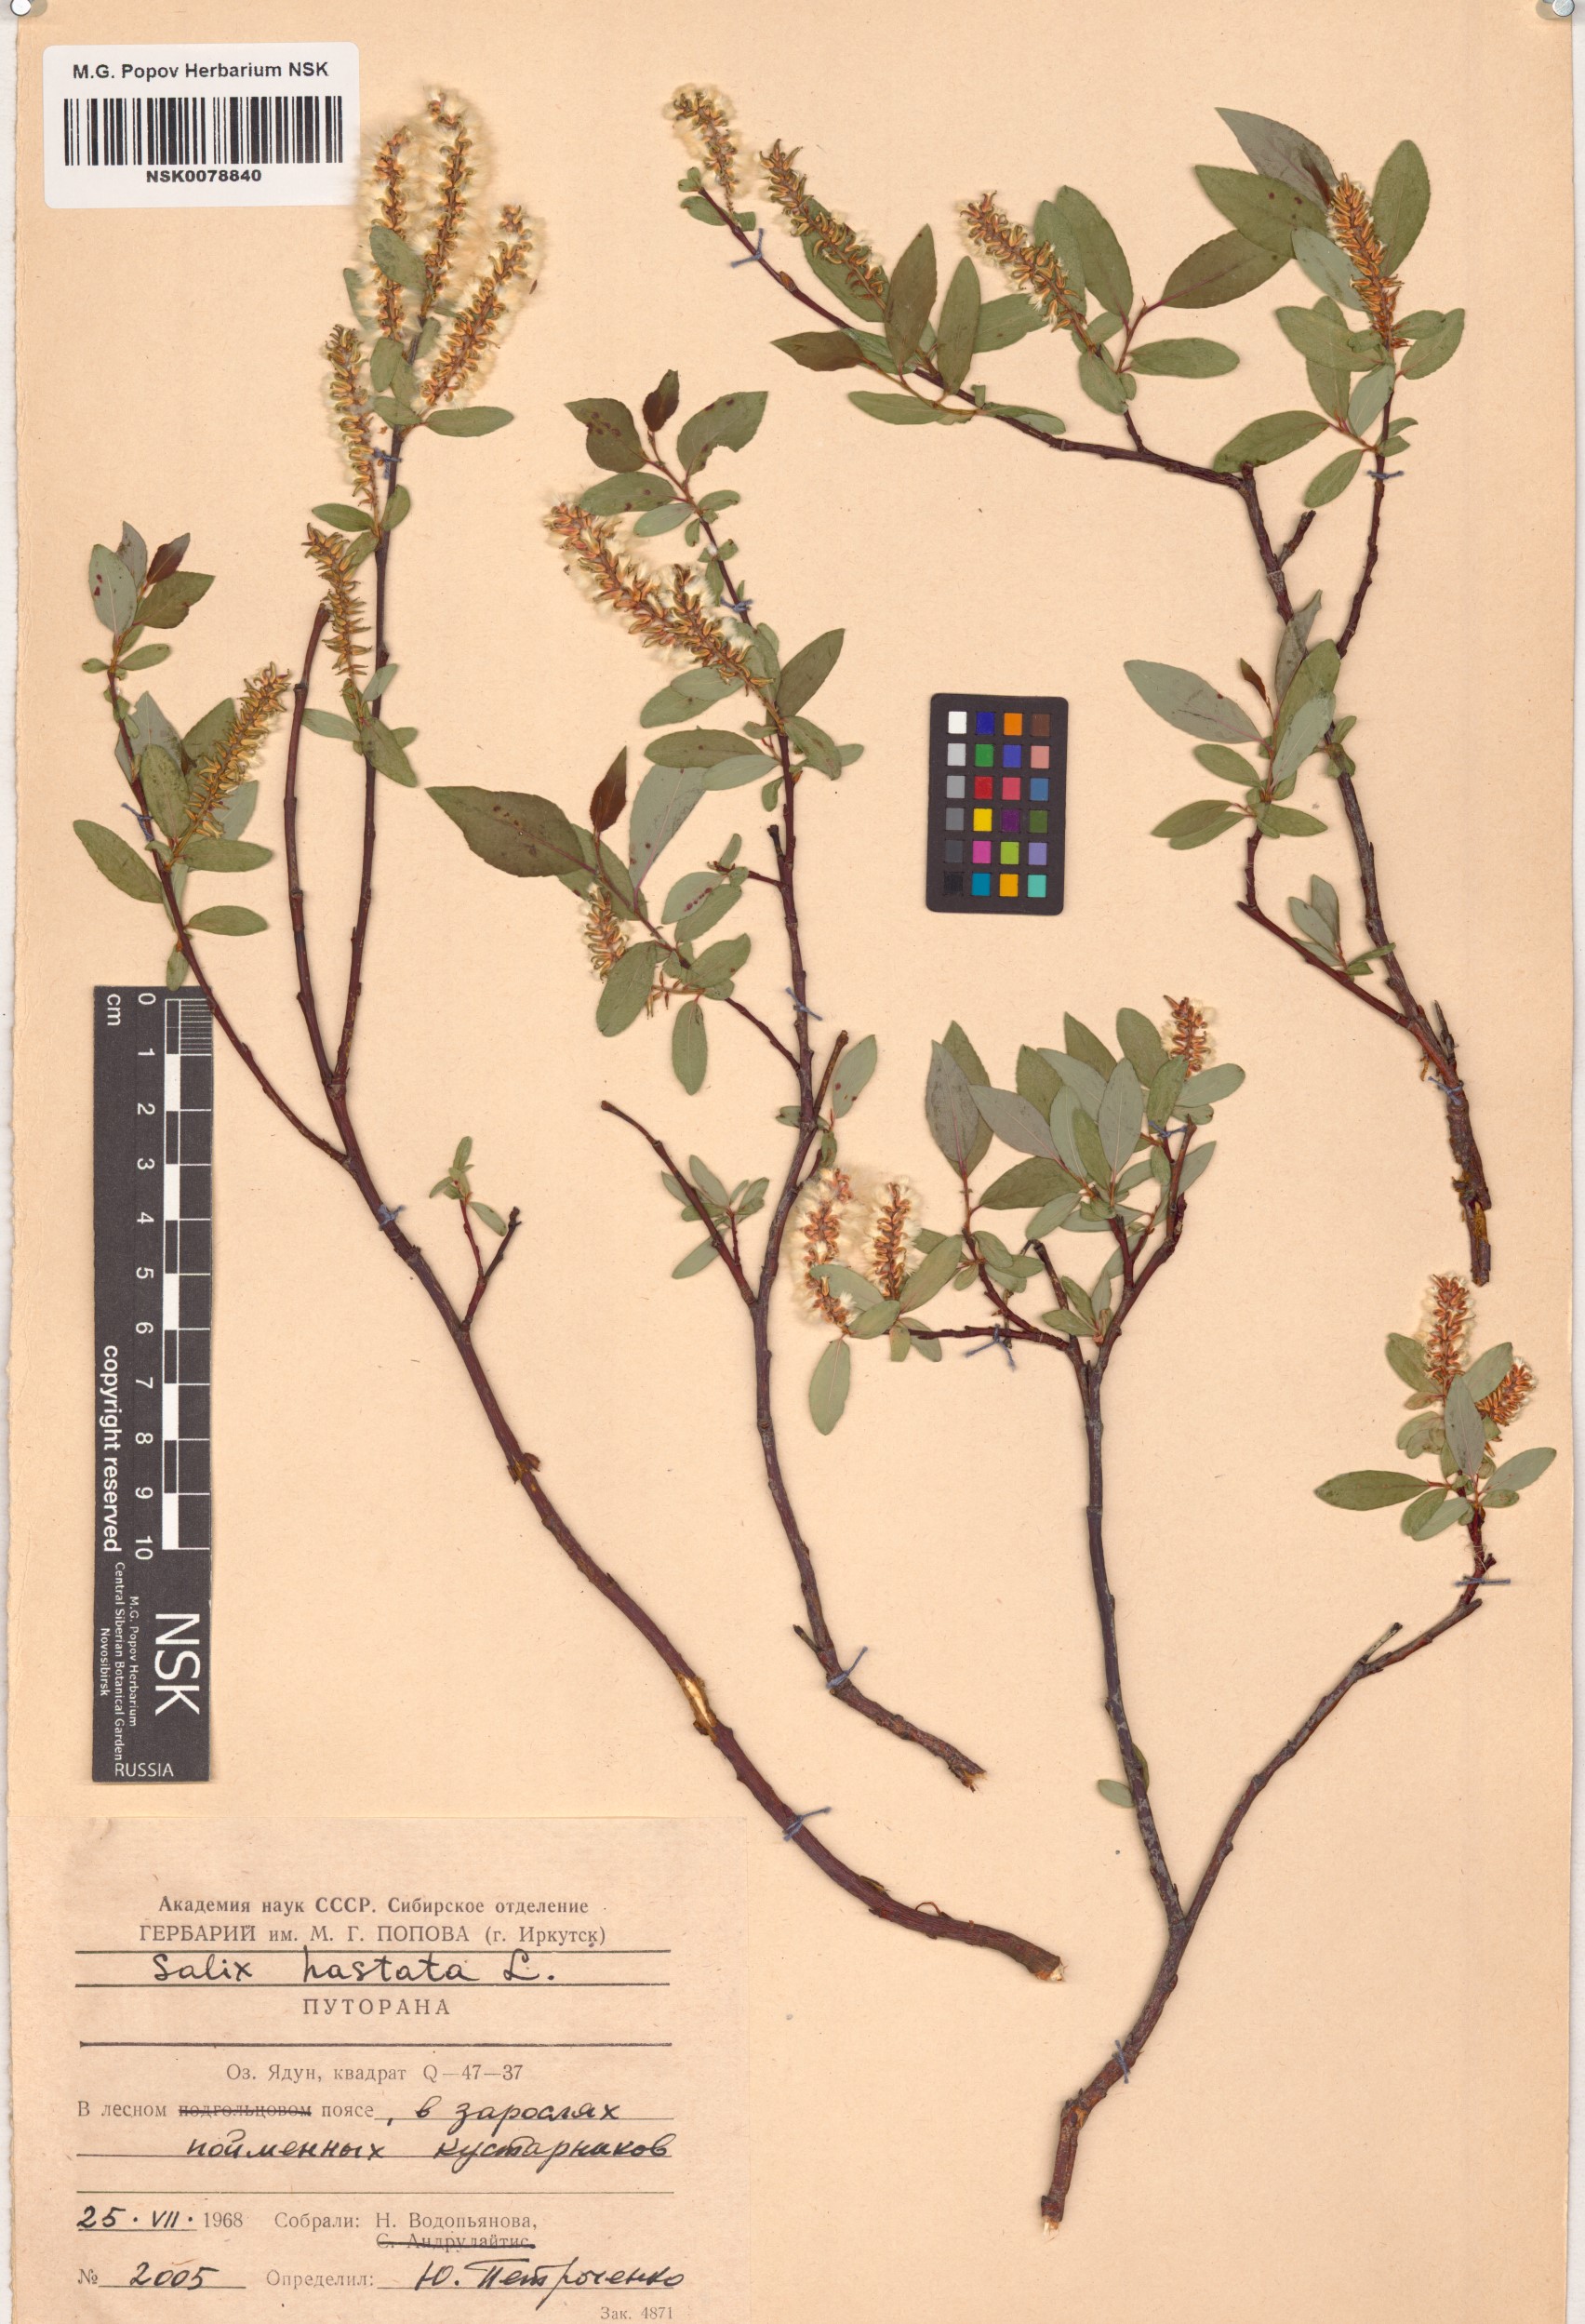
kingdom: Plantae
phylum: Tracheophyta
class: Magnoliopsida
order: Malpighiales
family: Salicaceae
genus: Salix
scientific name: Salix hastata
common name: Halberd willow
